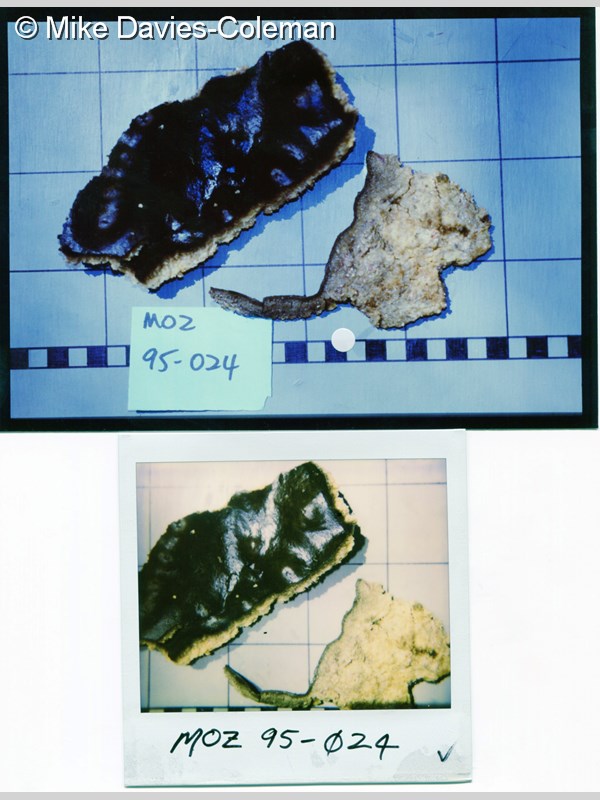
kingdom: Animalia
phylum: Porifera
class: Demospongiae
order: Dictyoceratida
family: Spongiidae
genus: Spongia
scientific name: Spongia
